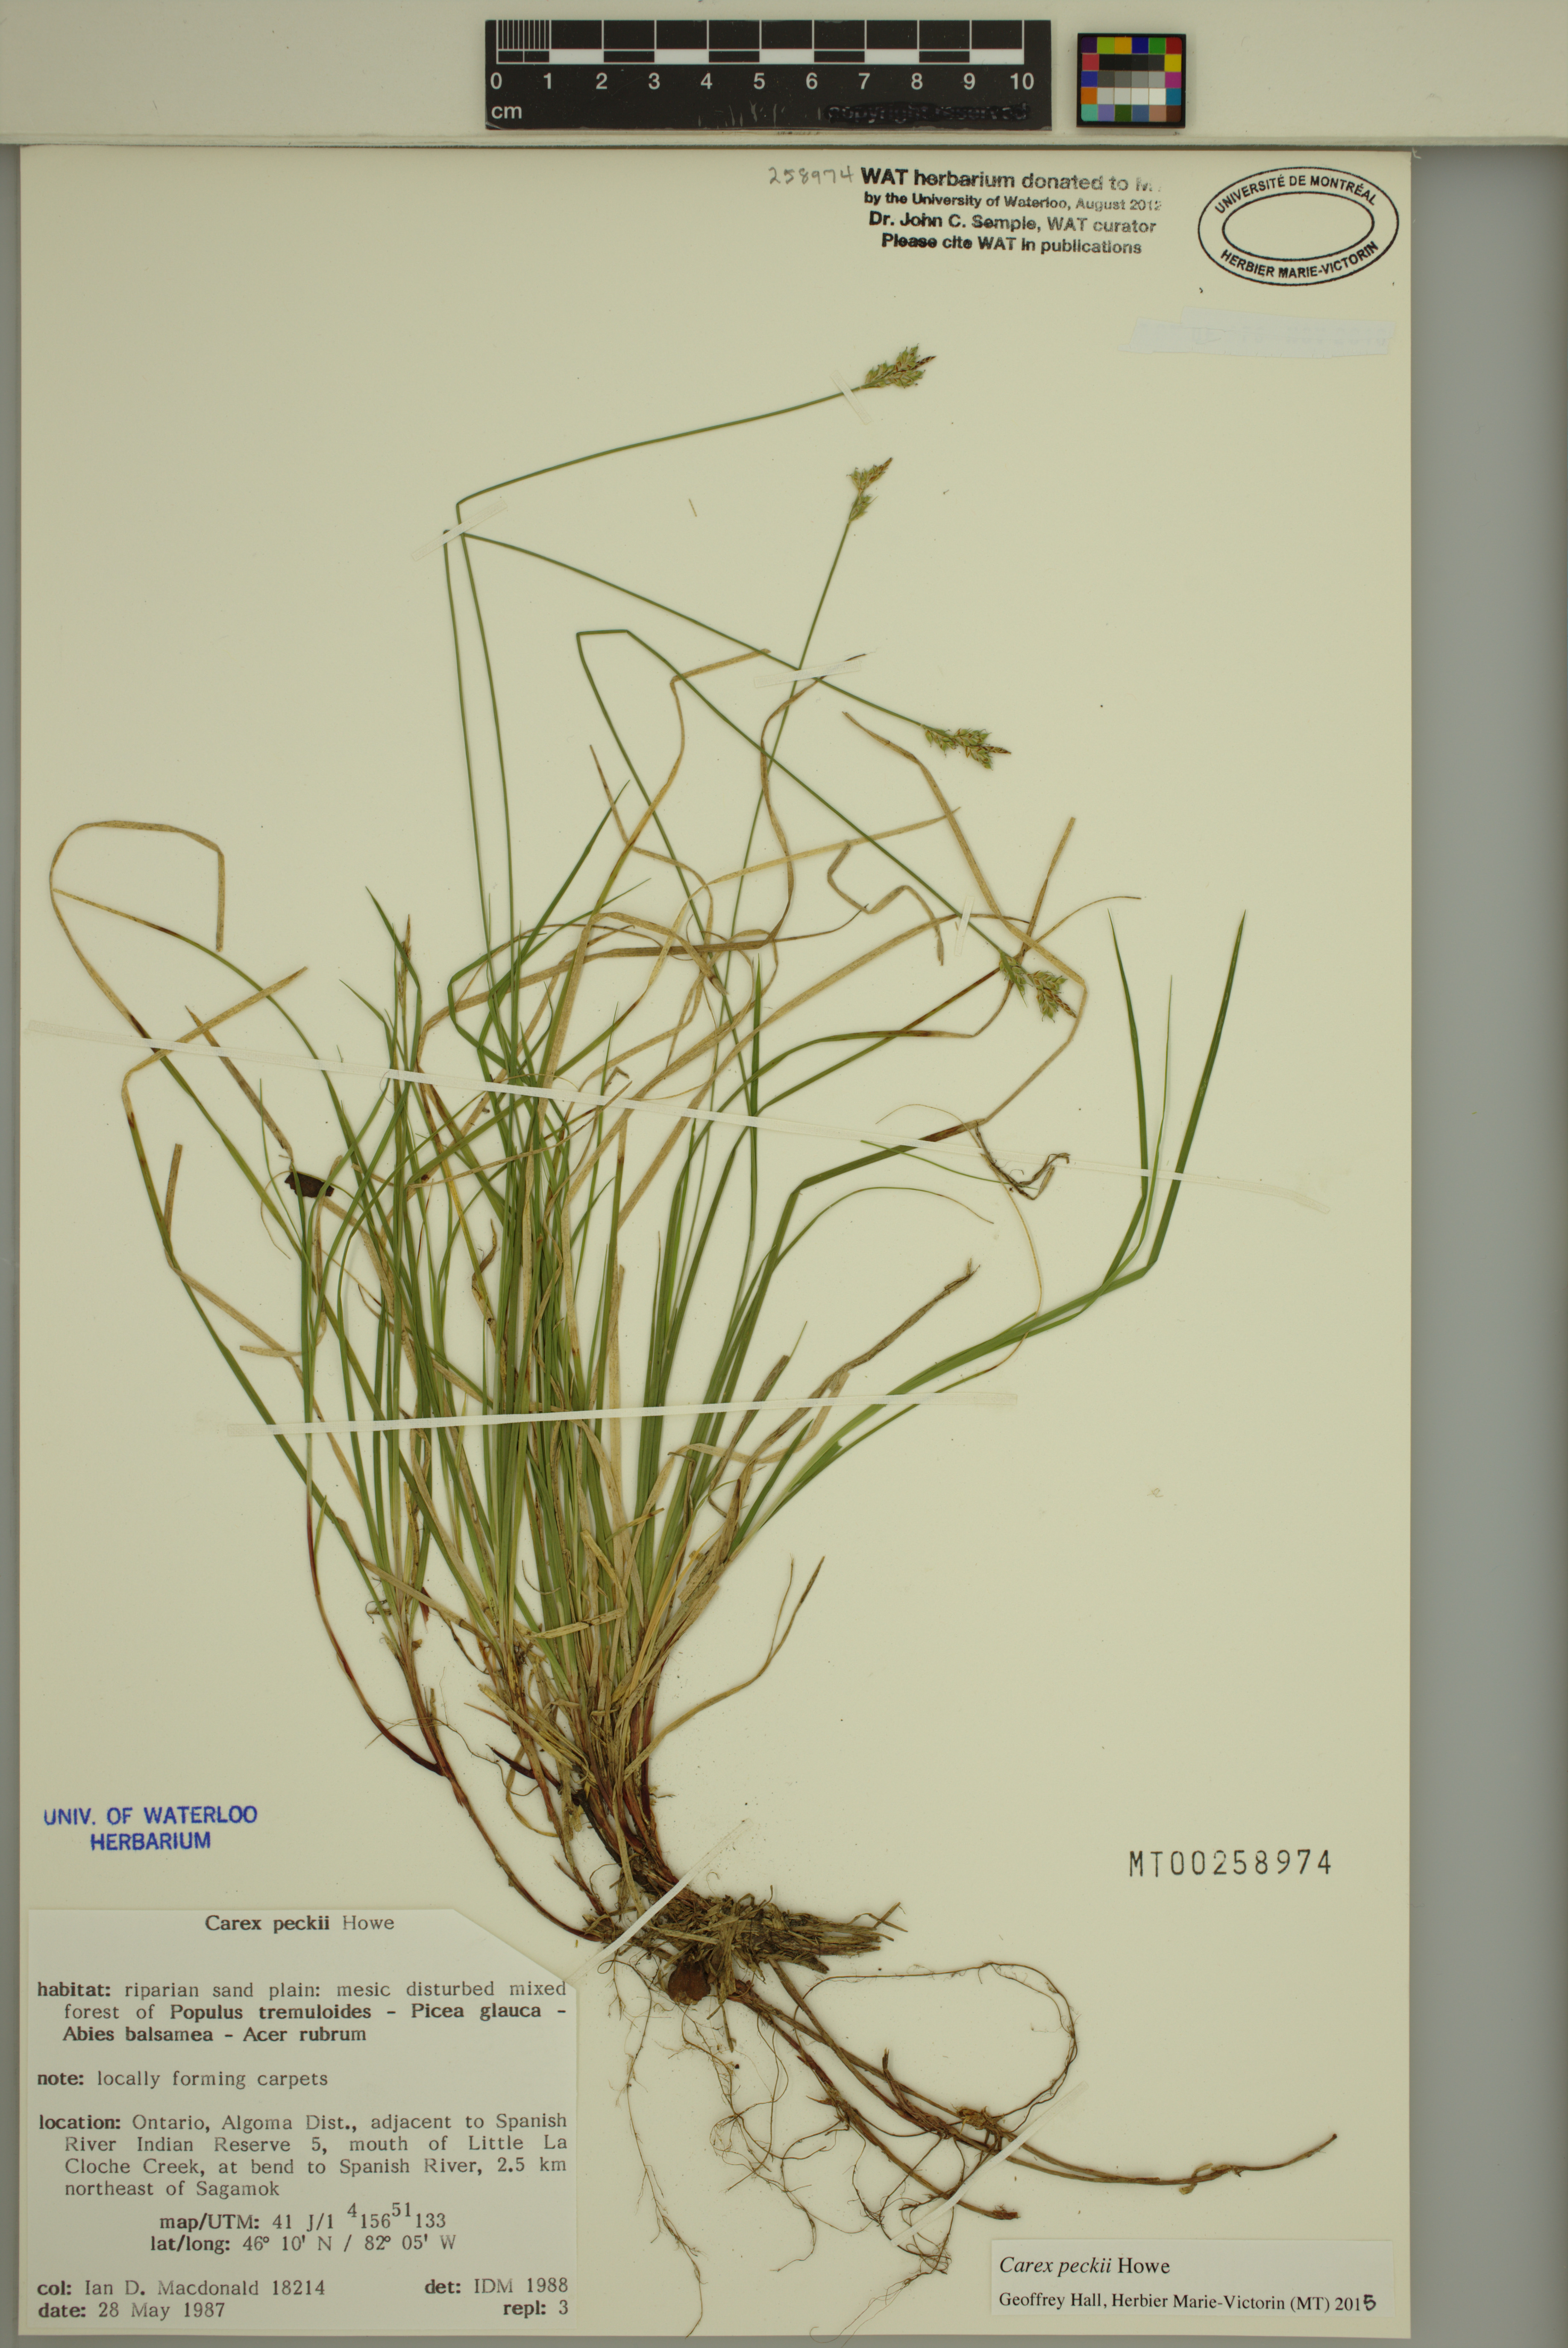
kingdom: Plantae
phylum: Tracheophyta
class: Liliopsida
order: Poales
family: Cyperaceae
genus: Carex
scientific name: Carex peckii
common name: Peck's oak sedge
